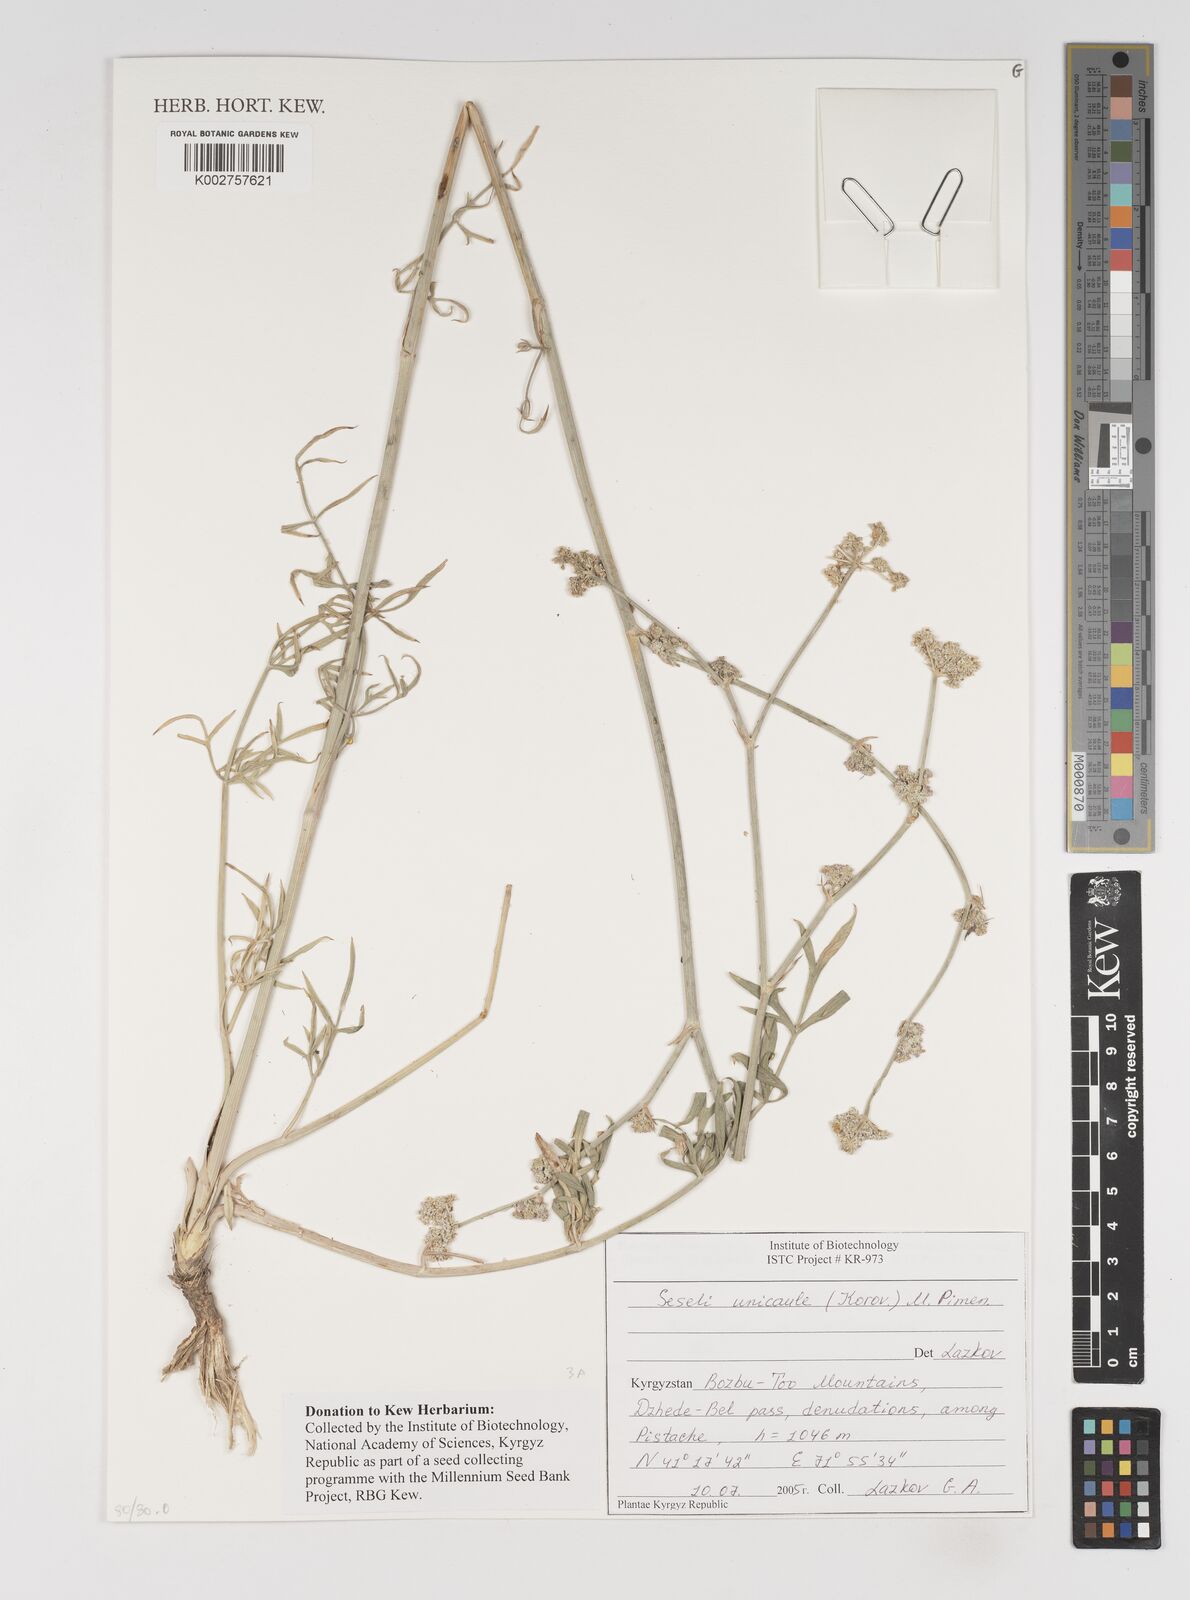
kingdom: Plantae
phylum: Tracheophyta
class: Magnoliopsida
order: Apiales
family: Apiaceae
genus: Seseli
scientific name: Seseli unicaule
